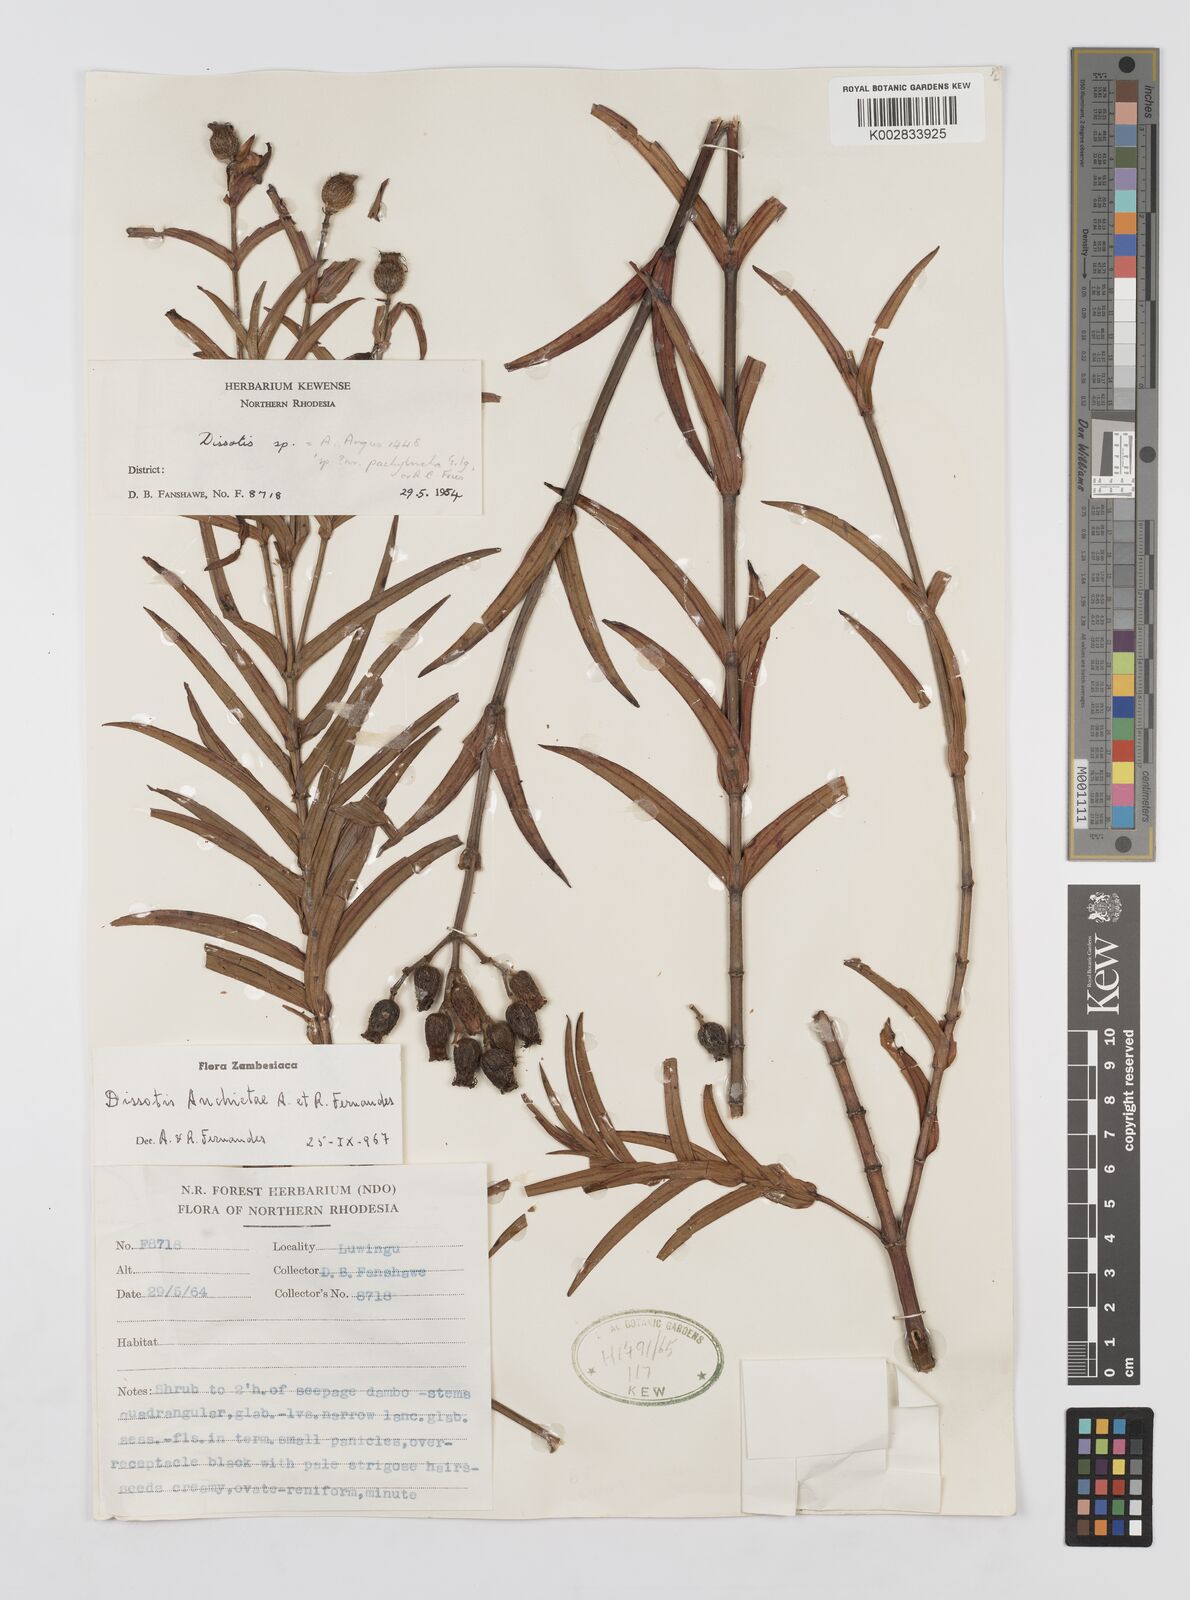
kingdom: Plantae
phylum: Tracheophyta
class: Magnoliopsida
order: Myrtales
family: Melastomataceae
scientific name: Melastomataceae
